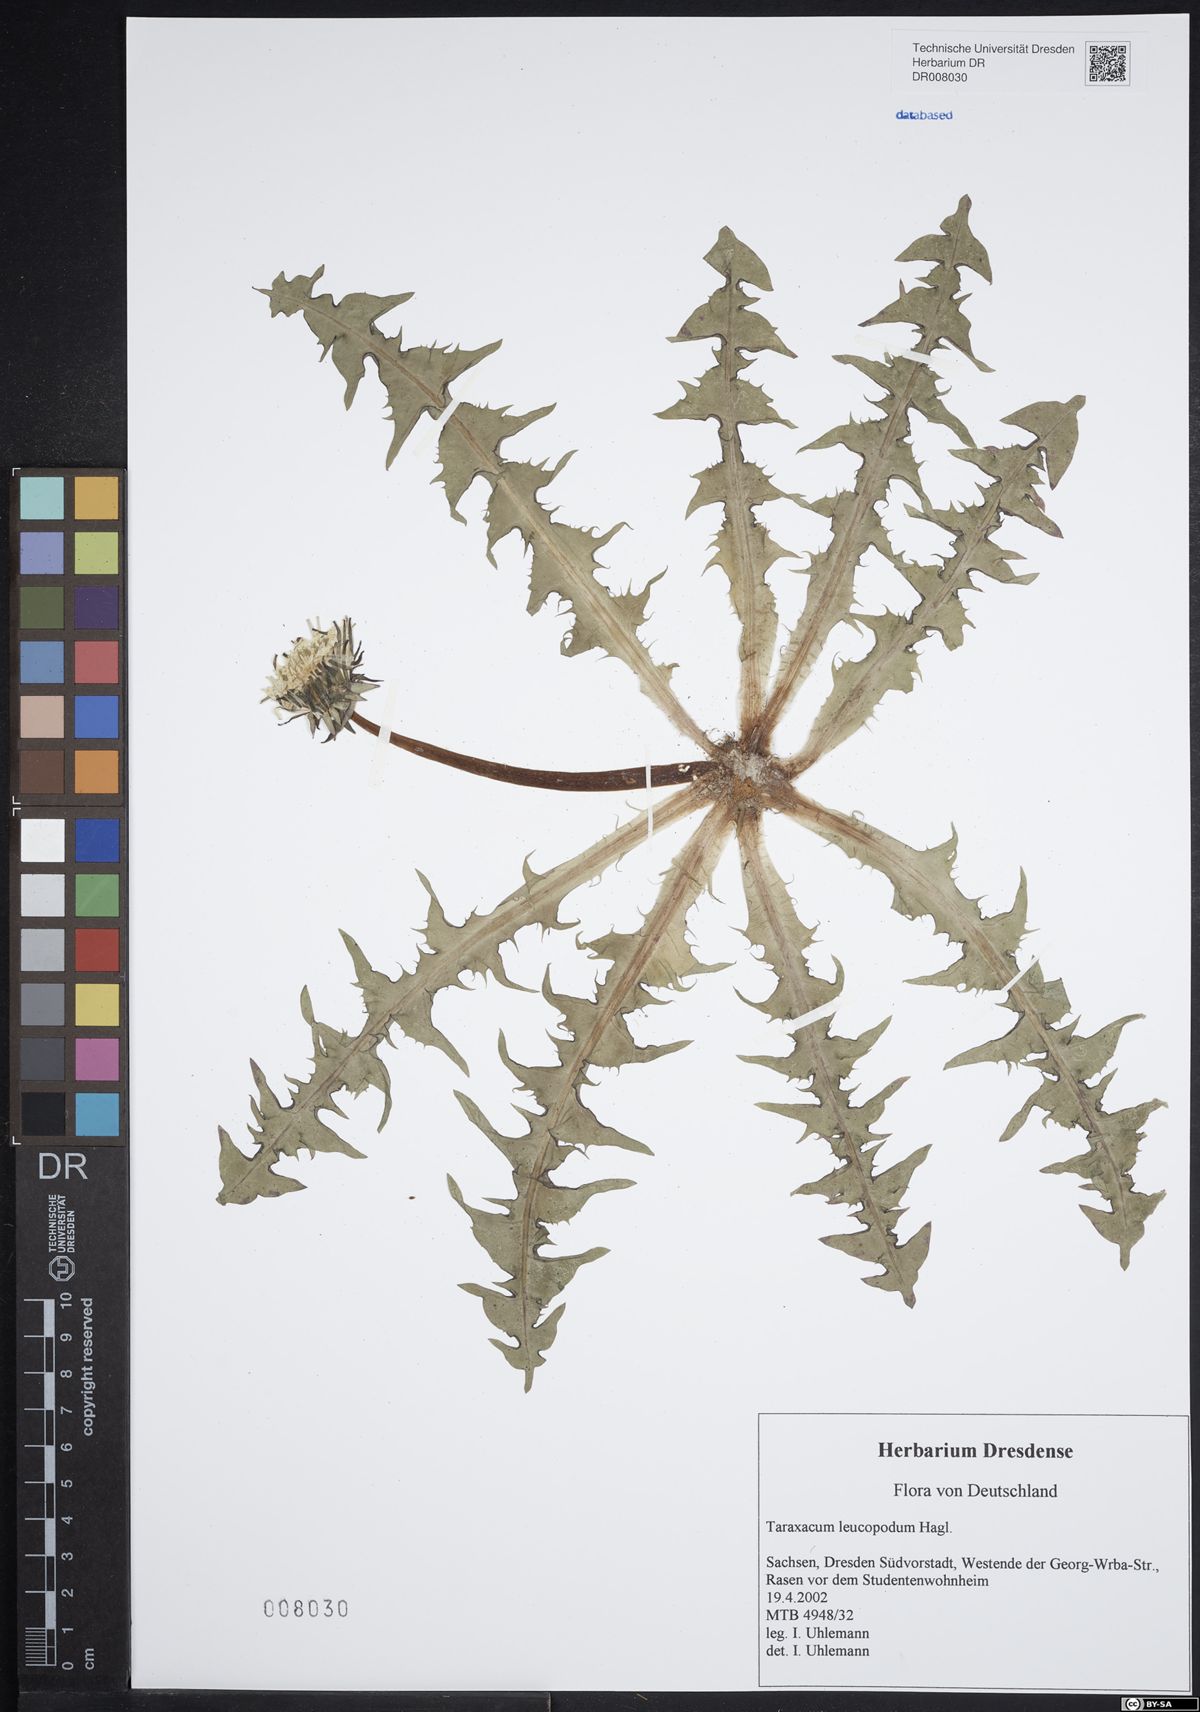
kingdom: Plantae
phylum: Tracheophyta
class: Magnoliopsida
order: Asterales
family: Asteraceae
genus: Taraxacum
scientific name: Taraxacum leucopodum
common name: White-stalked dandelion
